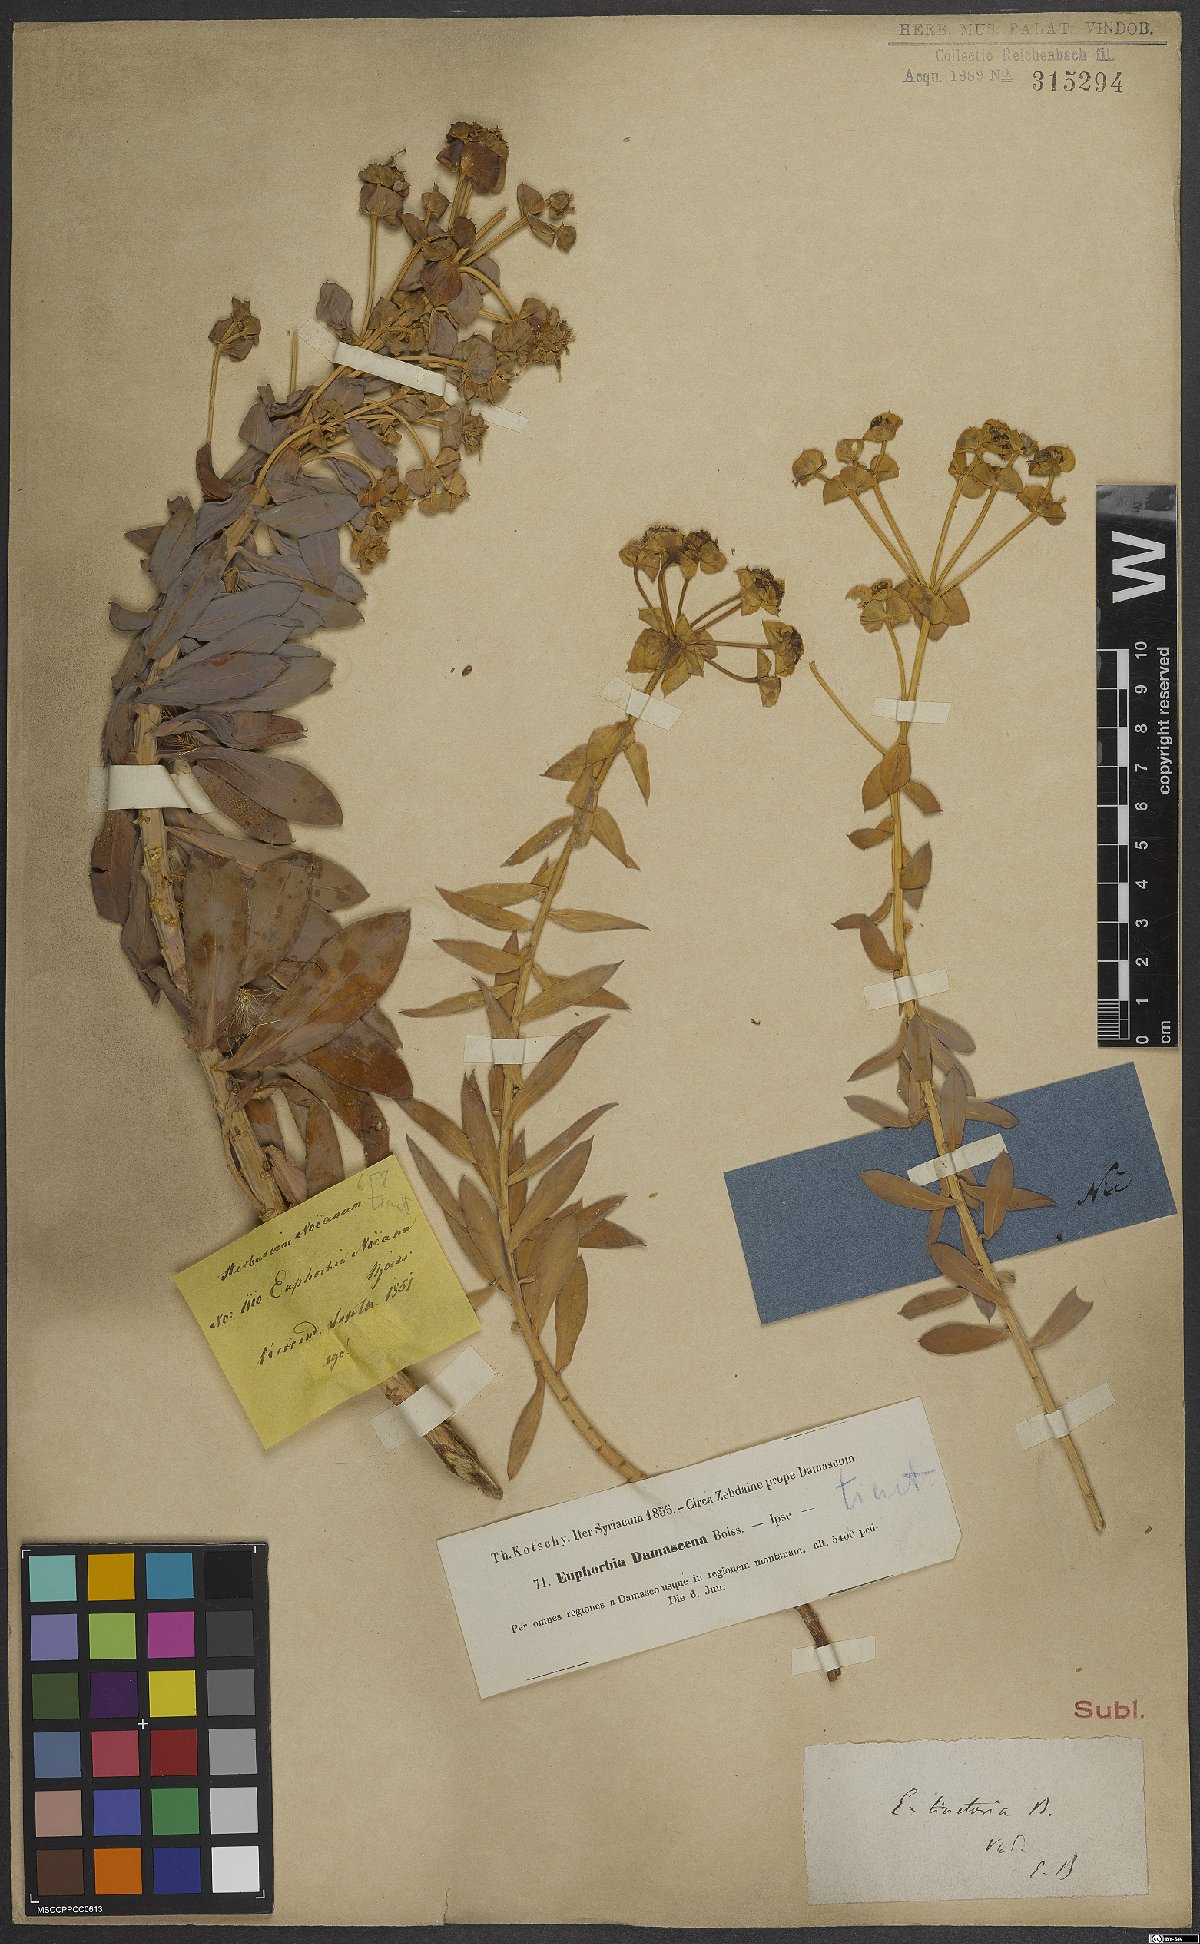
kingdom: Plantae
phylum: Tracheophyta
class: Magnoliopsida
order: Malpighiales
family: Euphorbiaceae
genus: Euphorbia
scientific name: Euphorbia macroclada
